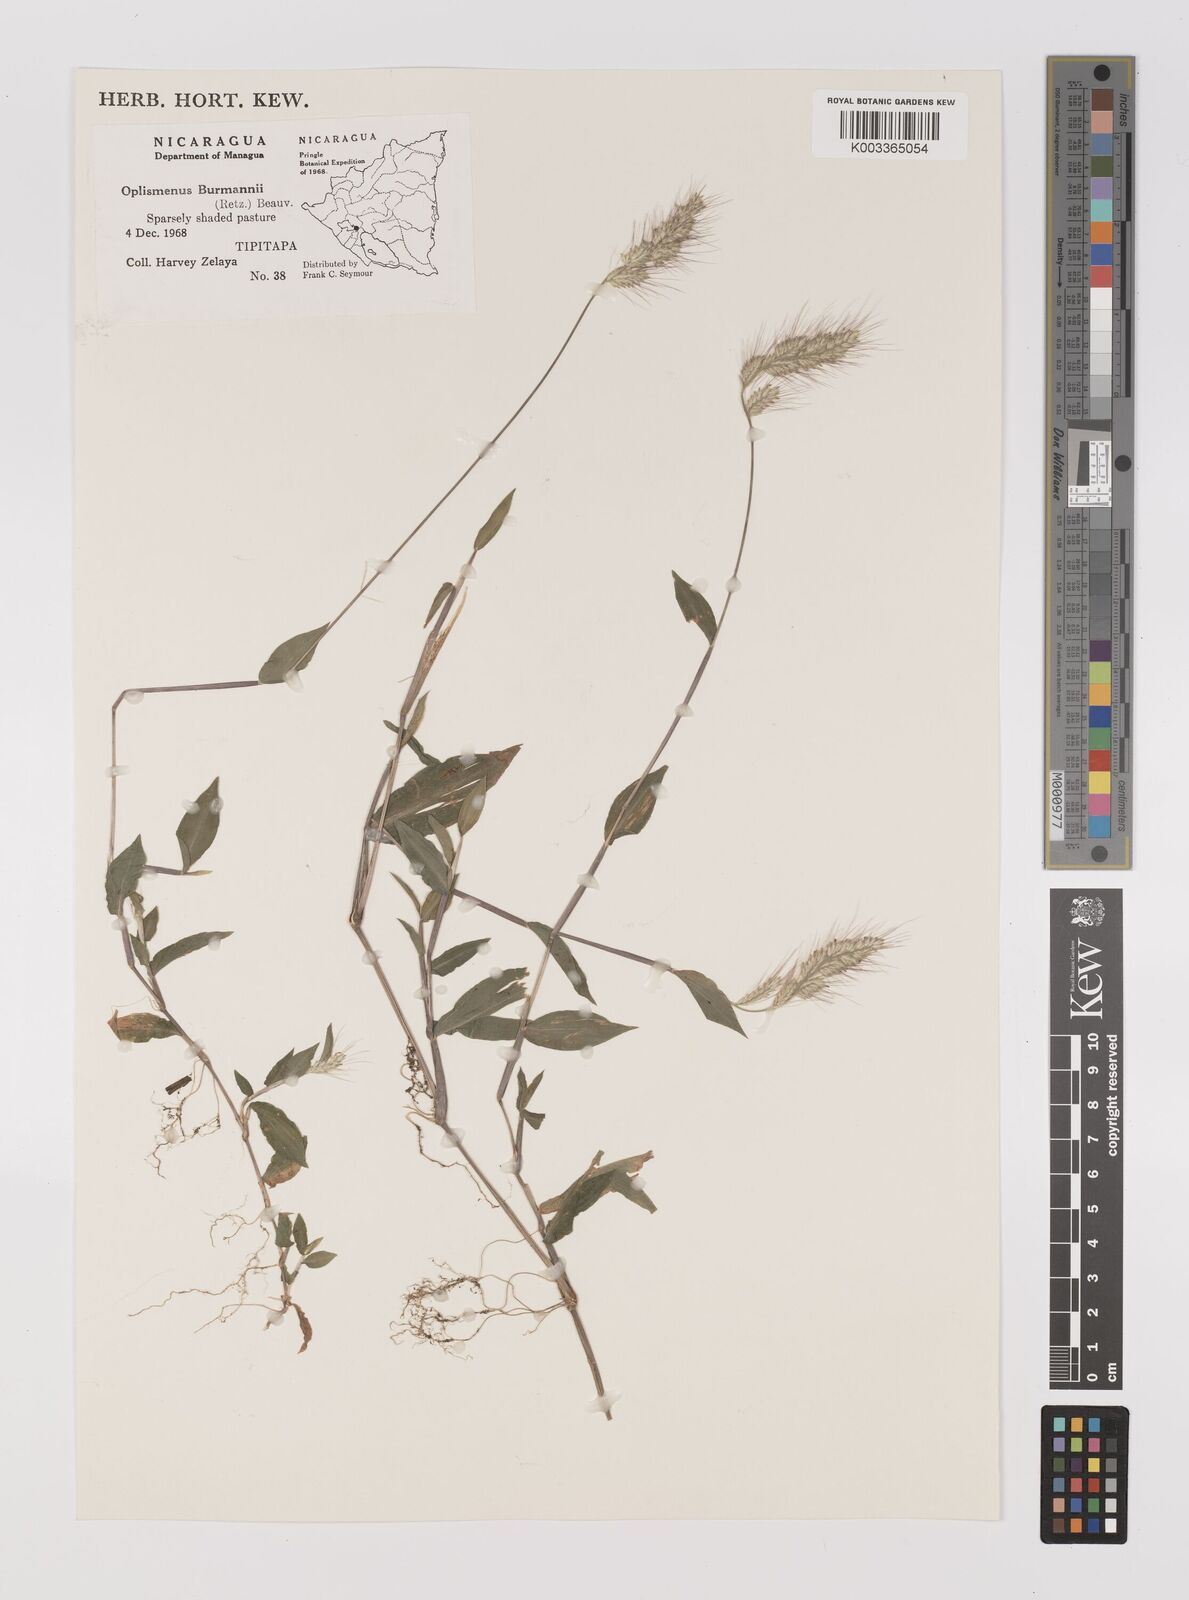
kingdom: Plantae
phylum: Tracheophyta
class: Liliopsida
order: Poales
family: Poaceae
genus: Oplismenus
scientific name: Oplismenus burmanni
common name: Burmann's basketgrass
